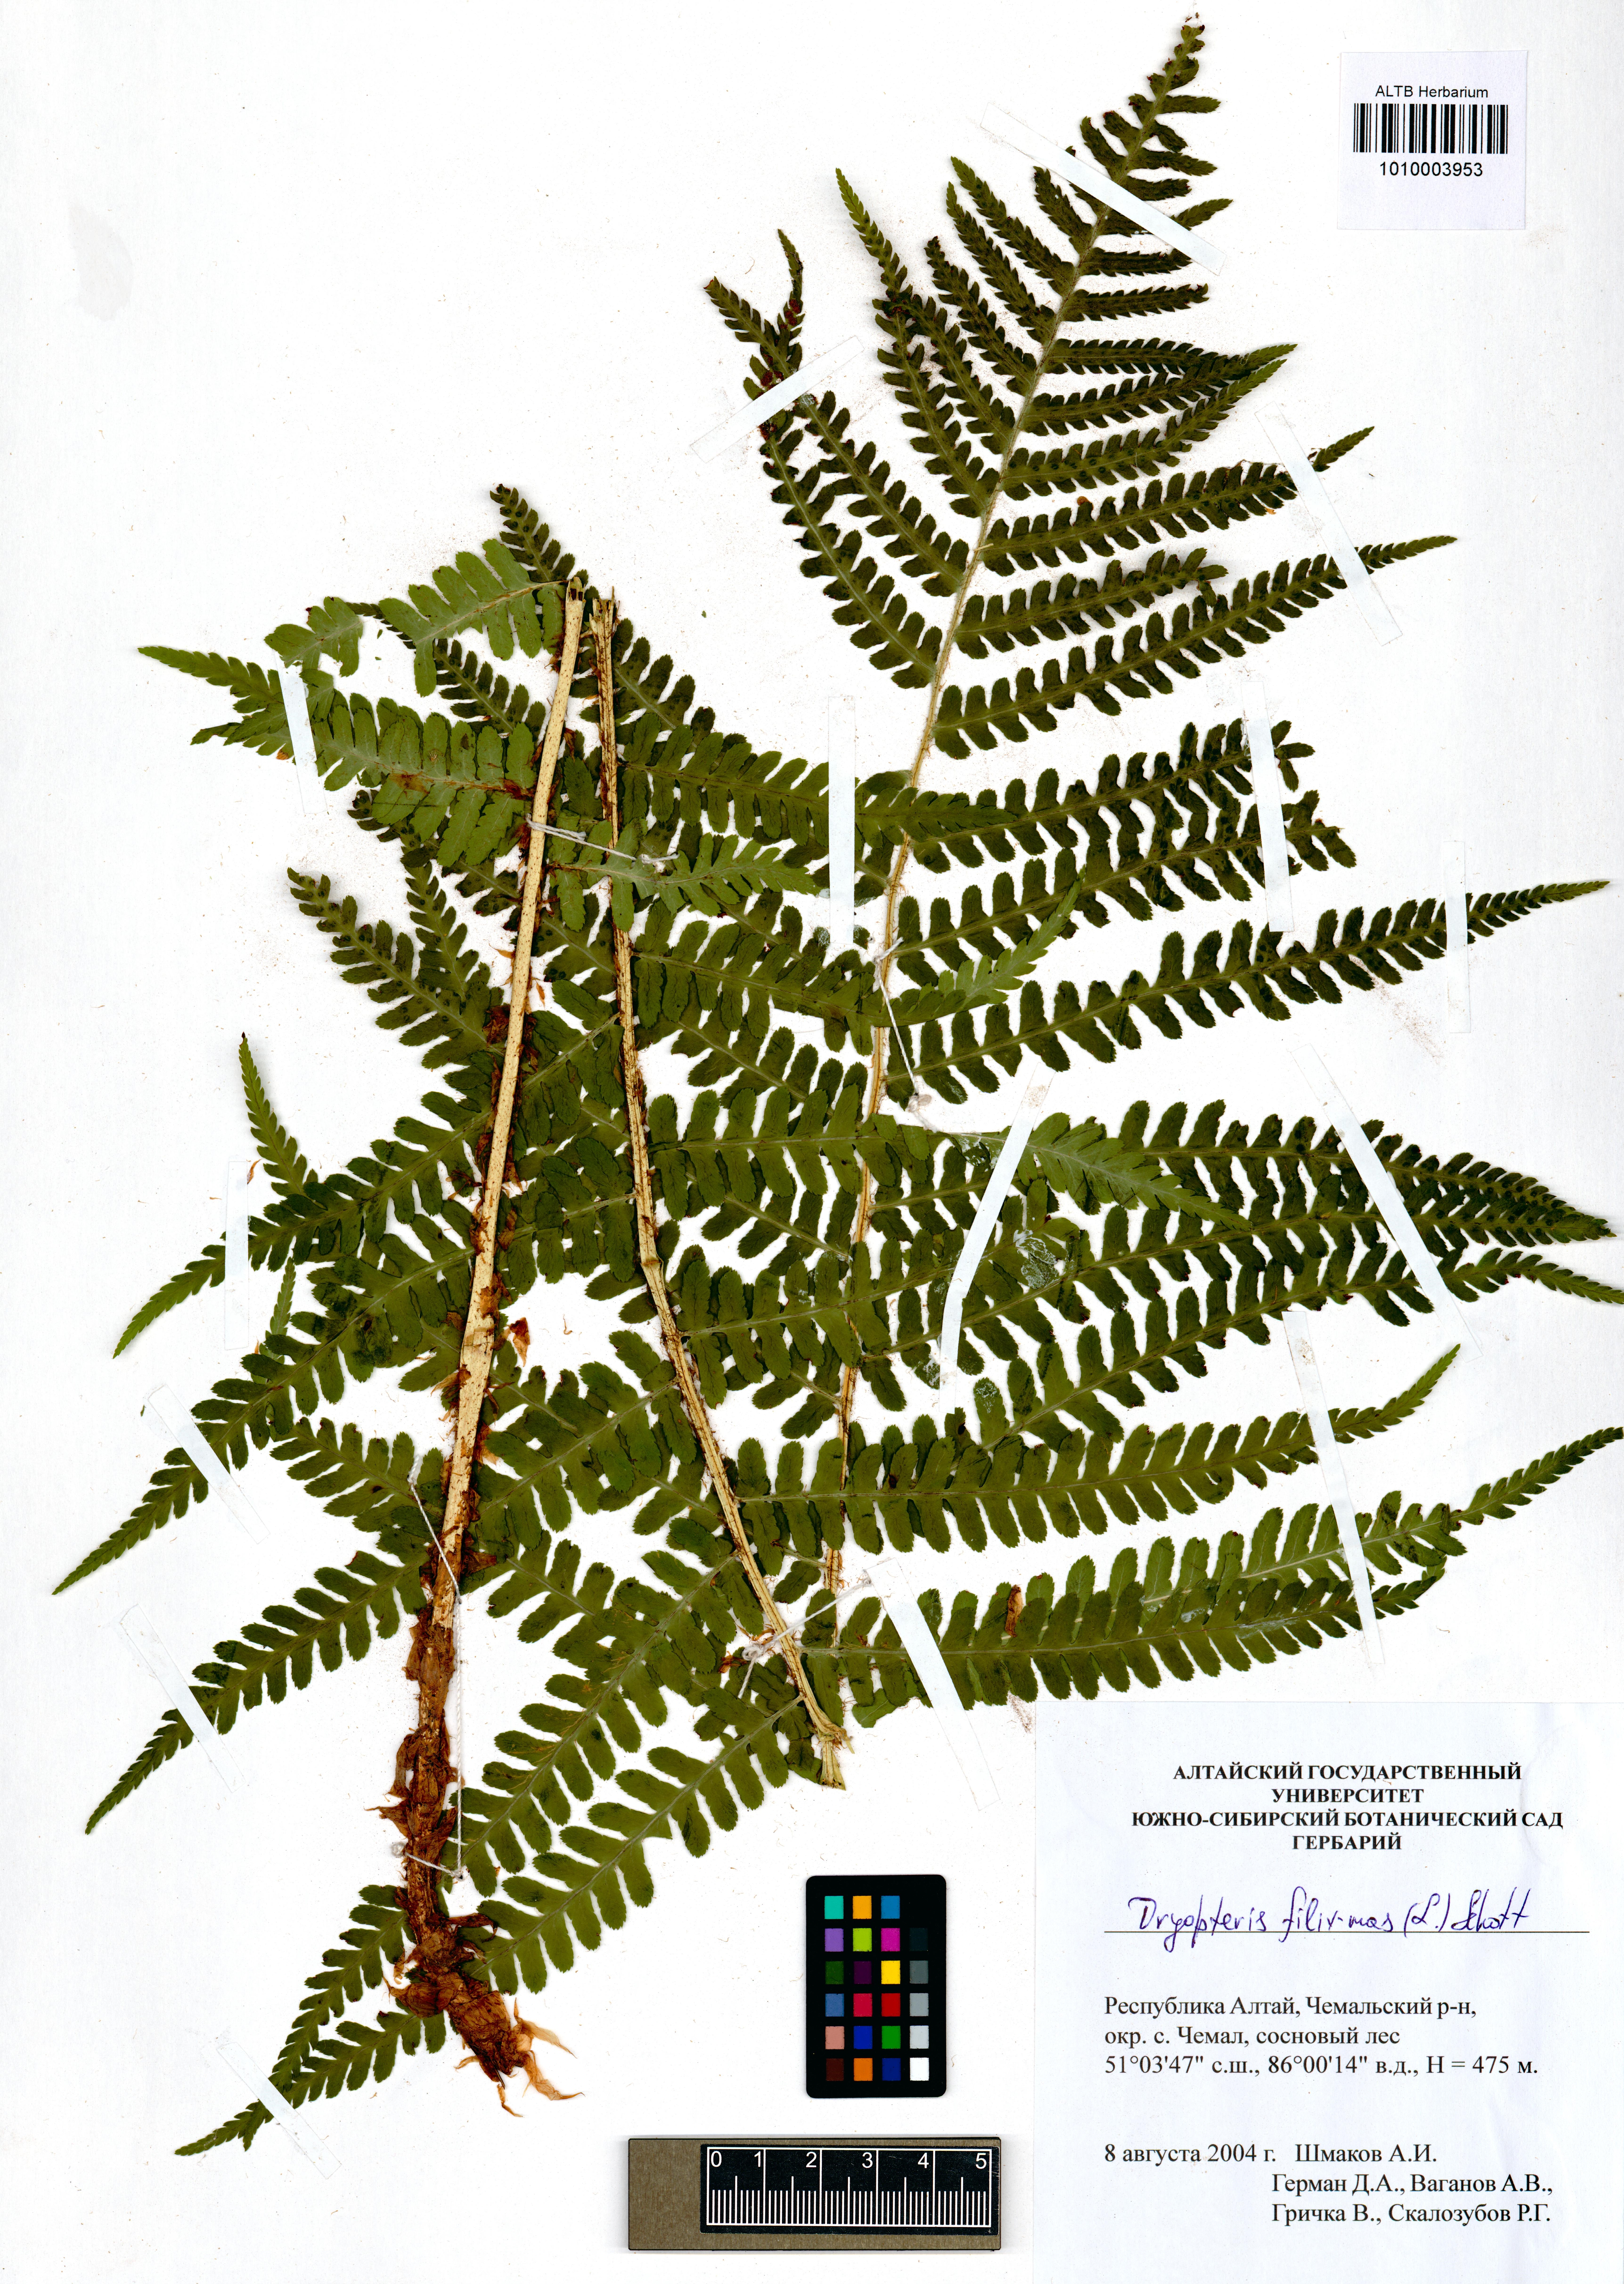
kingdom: Plantae
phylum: Tracheophyta
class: Polypodiopsida
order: Polypodiales
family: Dryopteridaceae
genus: Dryopteris
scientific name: Dryopteris filix-mas
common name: Male fern
